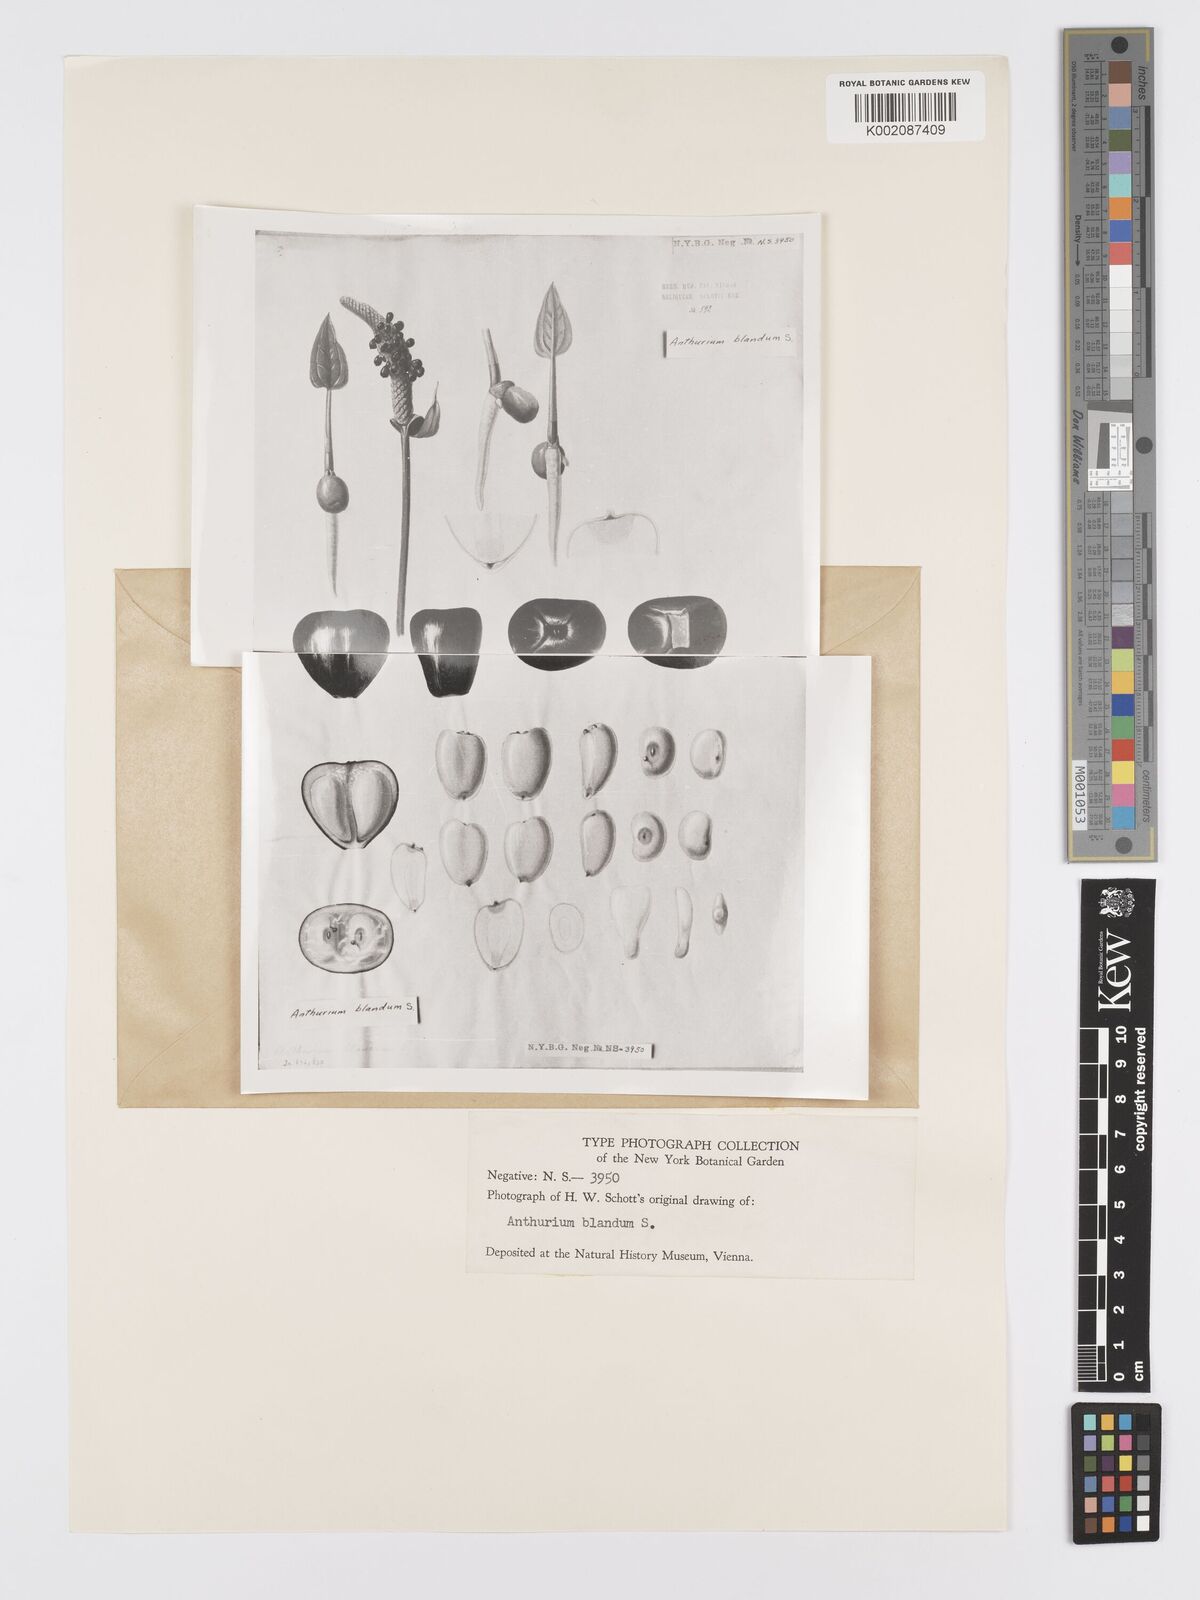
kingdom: Plantae
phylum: Tracheophyta
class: Liliopsida
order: Alismatales
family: Araceae
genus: Anthurium
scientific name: Anthurium
